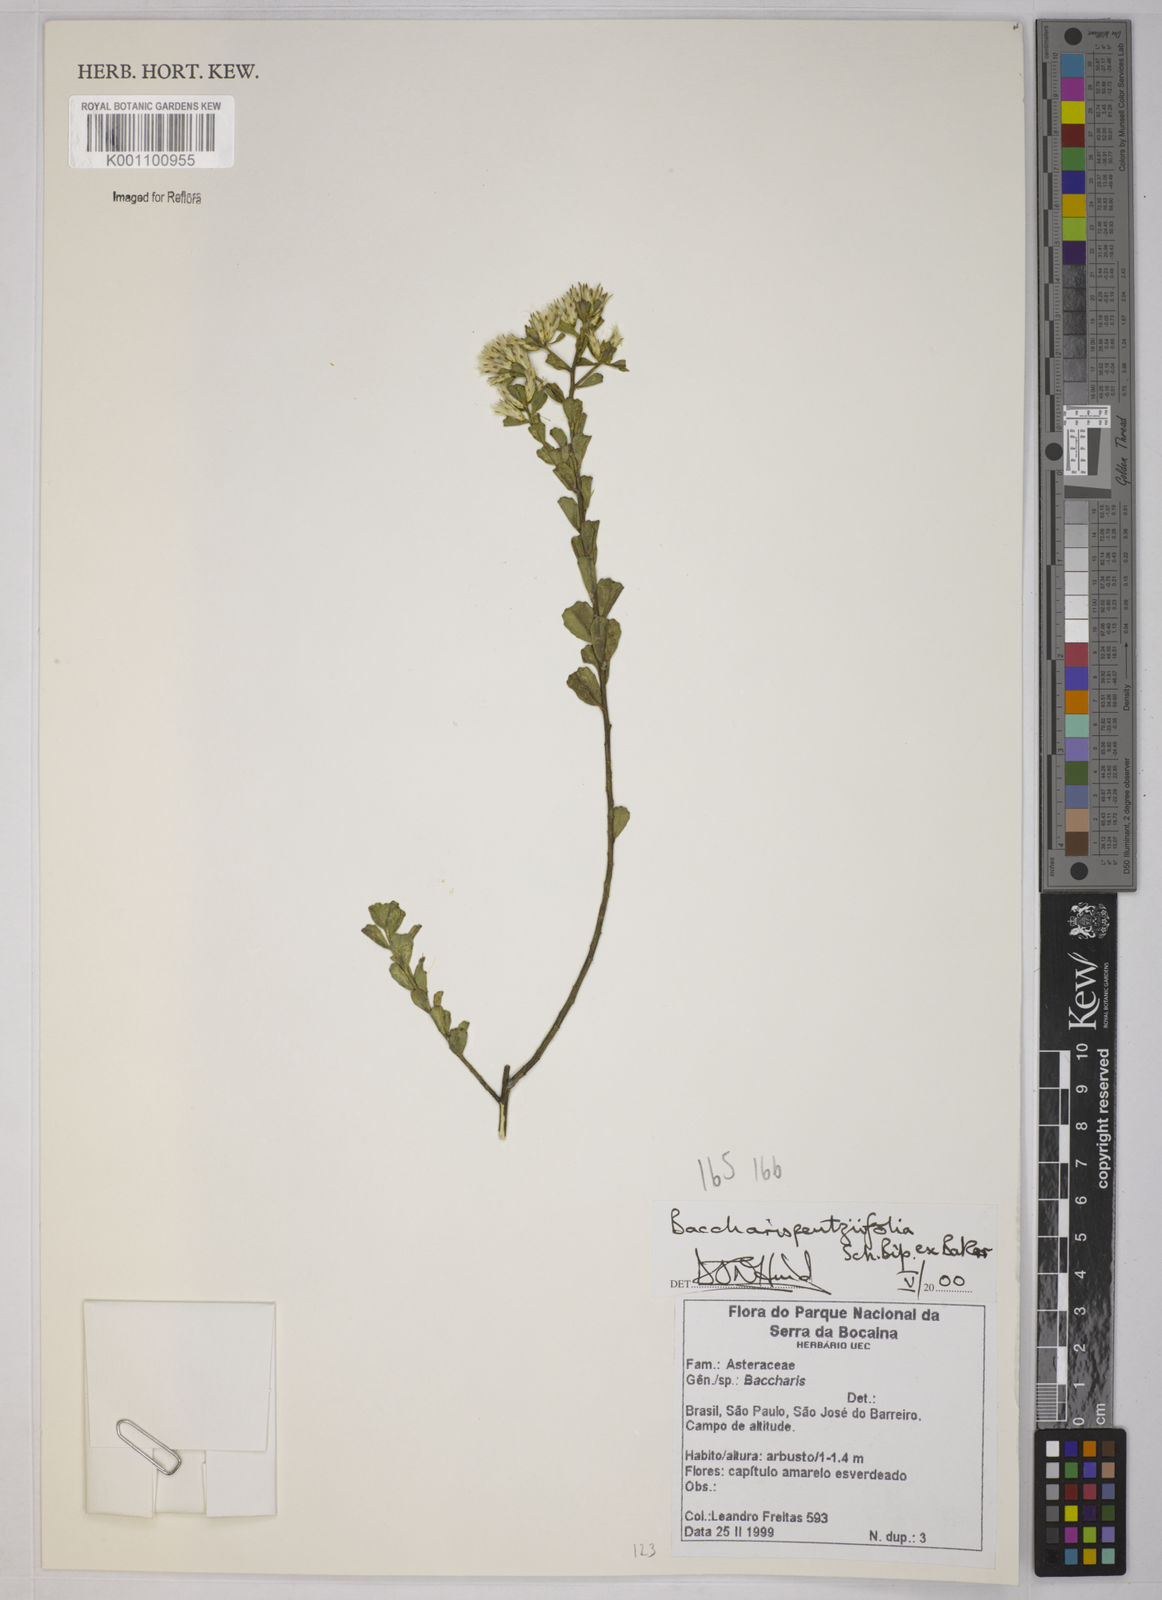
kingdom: Plantae
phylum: Tracheophyta
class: Magnoliopsida
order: Asterales
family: Asteraceae
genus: Baccharis
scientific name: Baccharis pentziifolia
